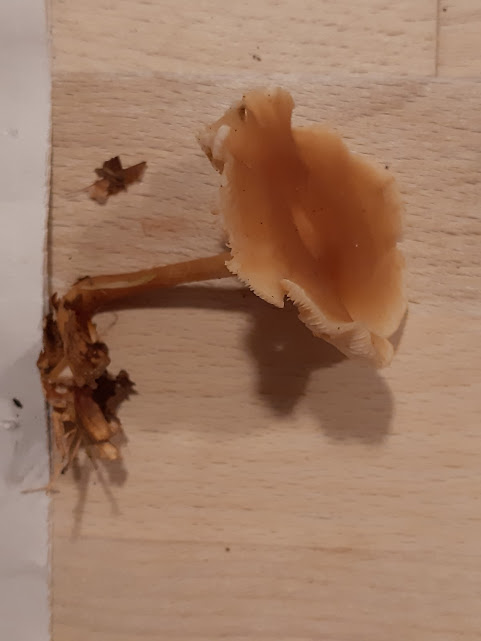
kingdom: Fungi
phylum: Basidiomycota
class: Agaricomycetes
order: Agaricales
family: Omphalotaceae
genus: Gymnopus
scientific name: Gymnopus dryophilus
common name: løv-fladhat
